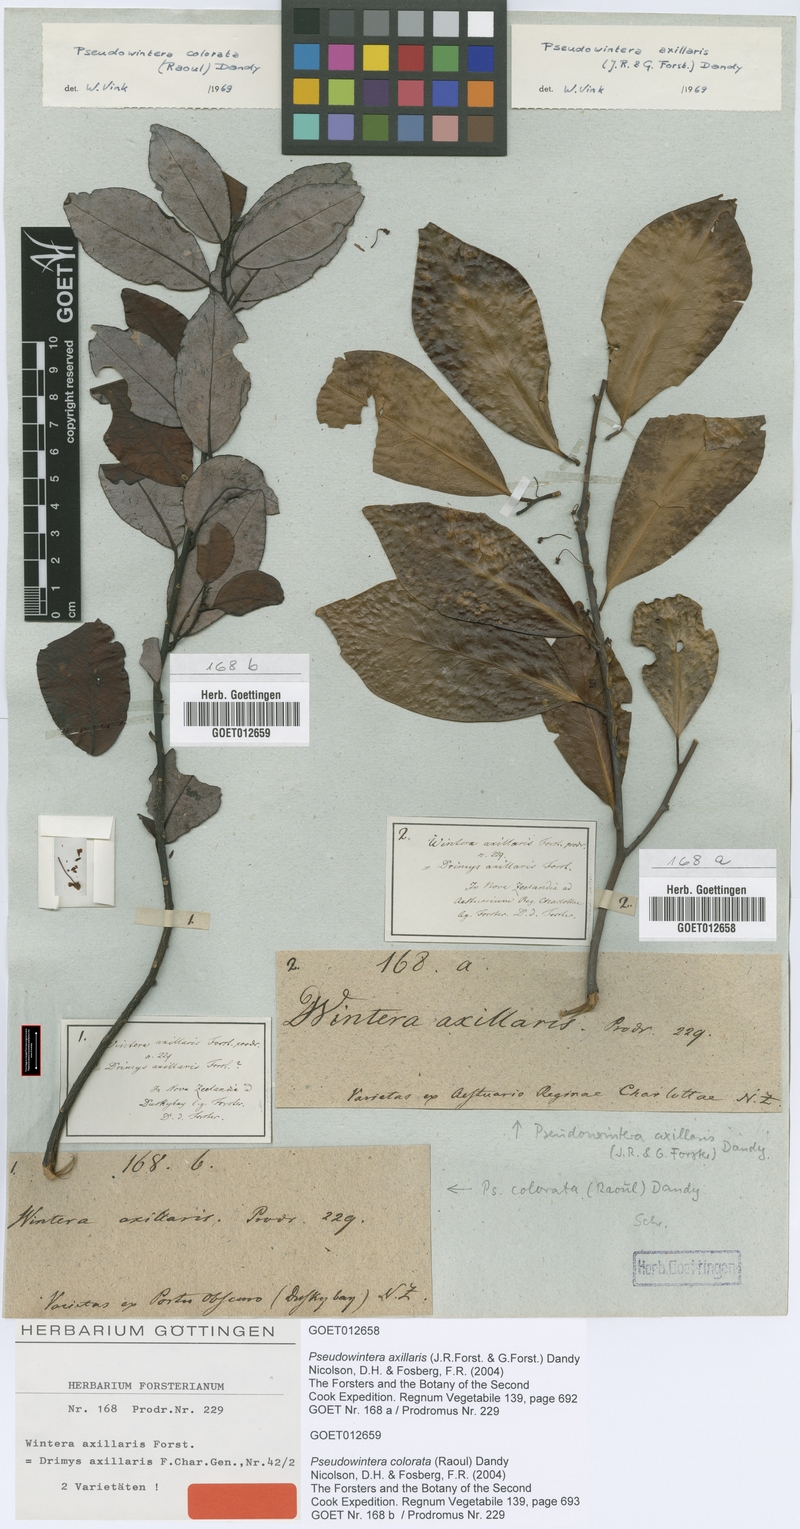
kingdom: Plantae
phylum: Tracheophyta
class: Magnoliopsida
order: Canellales
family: Winteraceae
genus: Pseudowintera
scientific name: Pseudowintera axillaris
